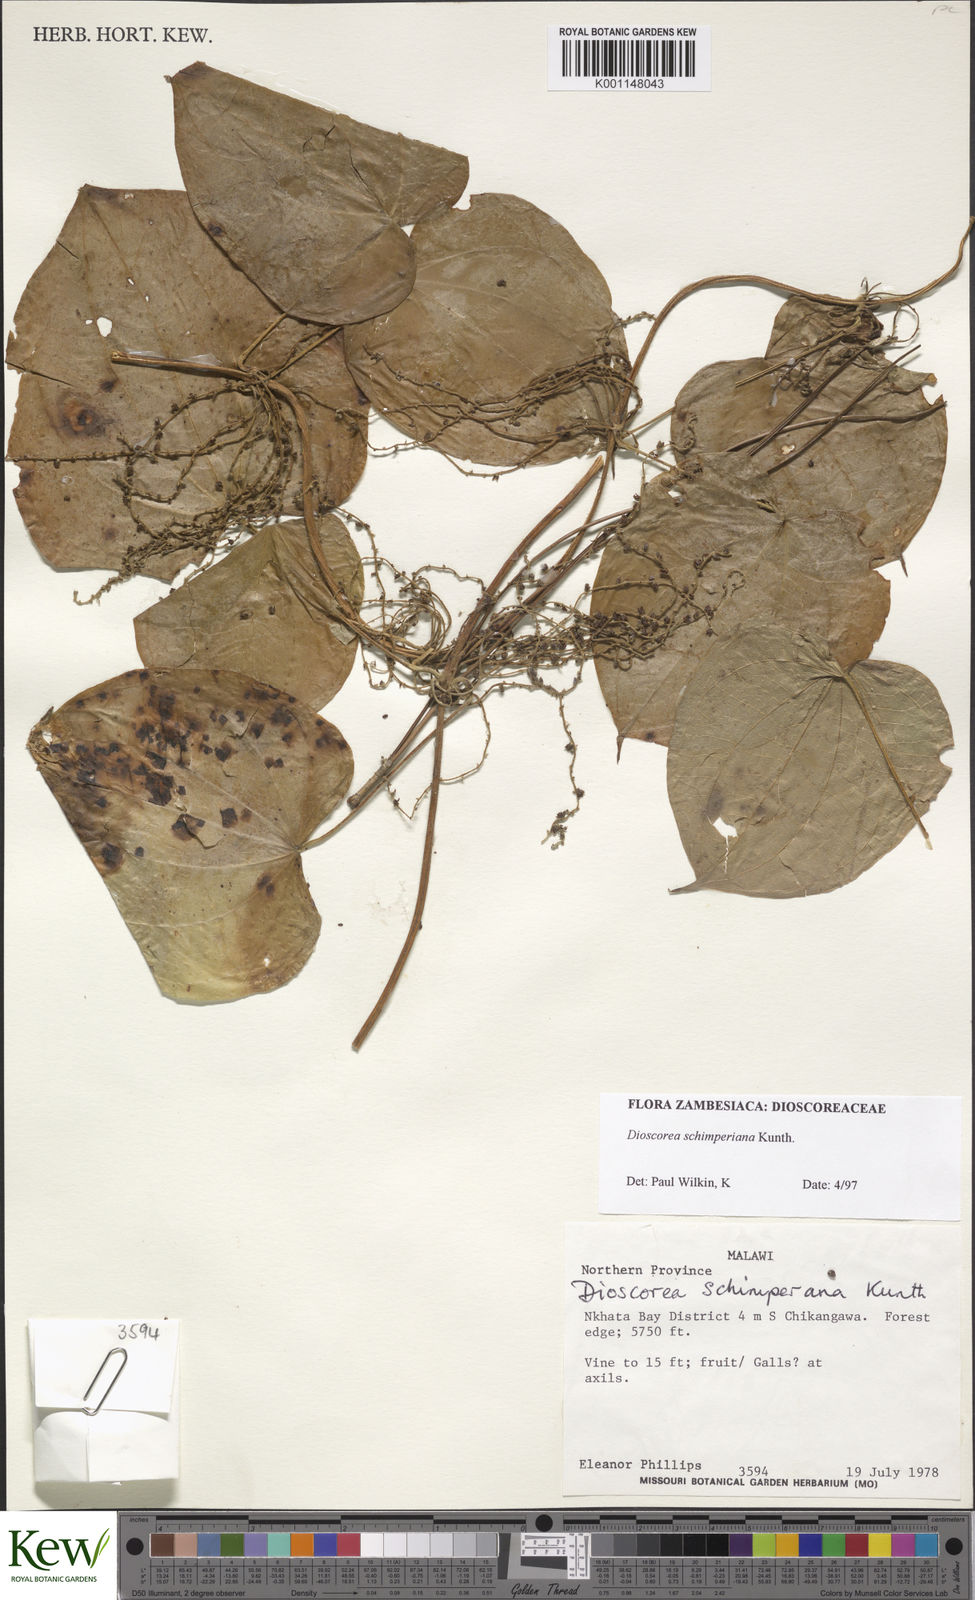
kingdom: Plantae
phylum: Tracheophyta
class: Liliopsida
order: Dioscoreales
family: Dioscoreaceae
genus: Dioscorea
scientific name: Dioscorea schimperiana
